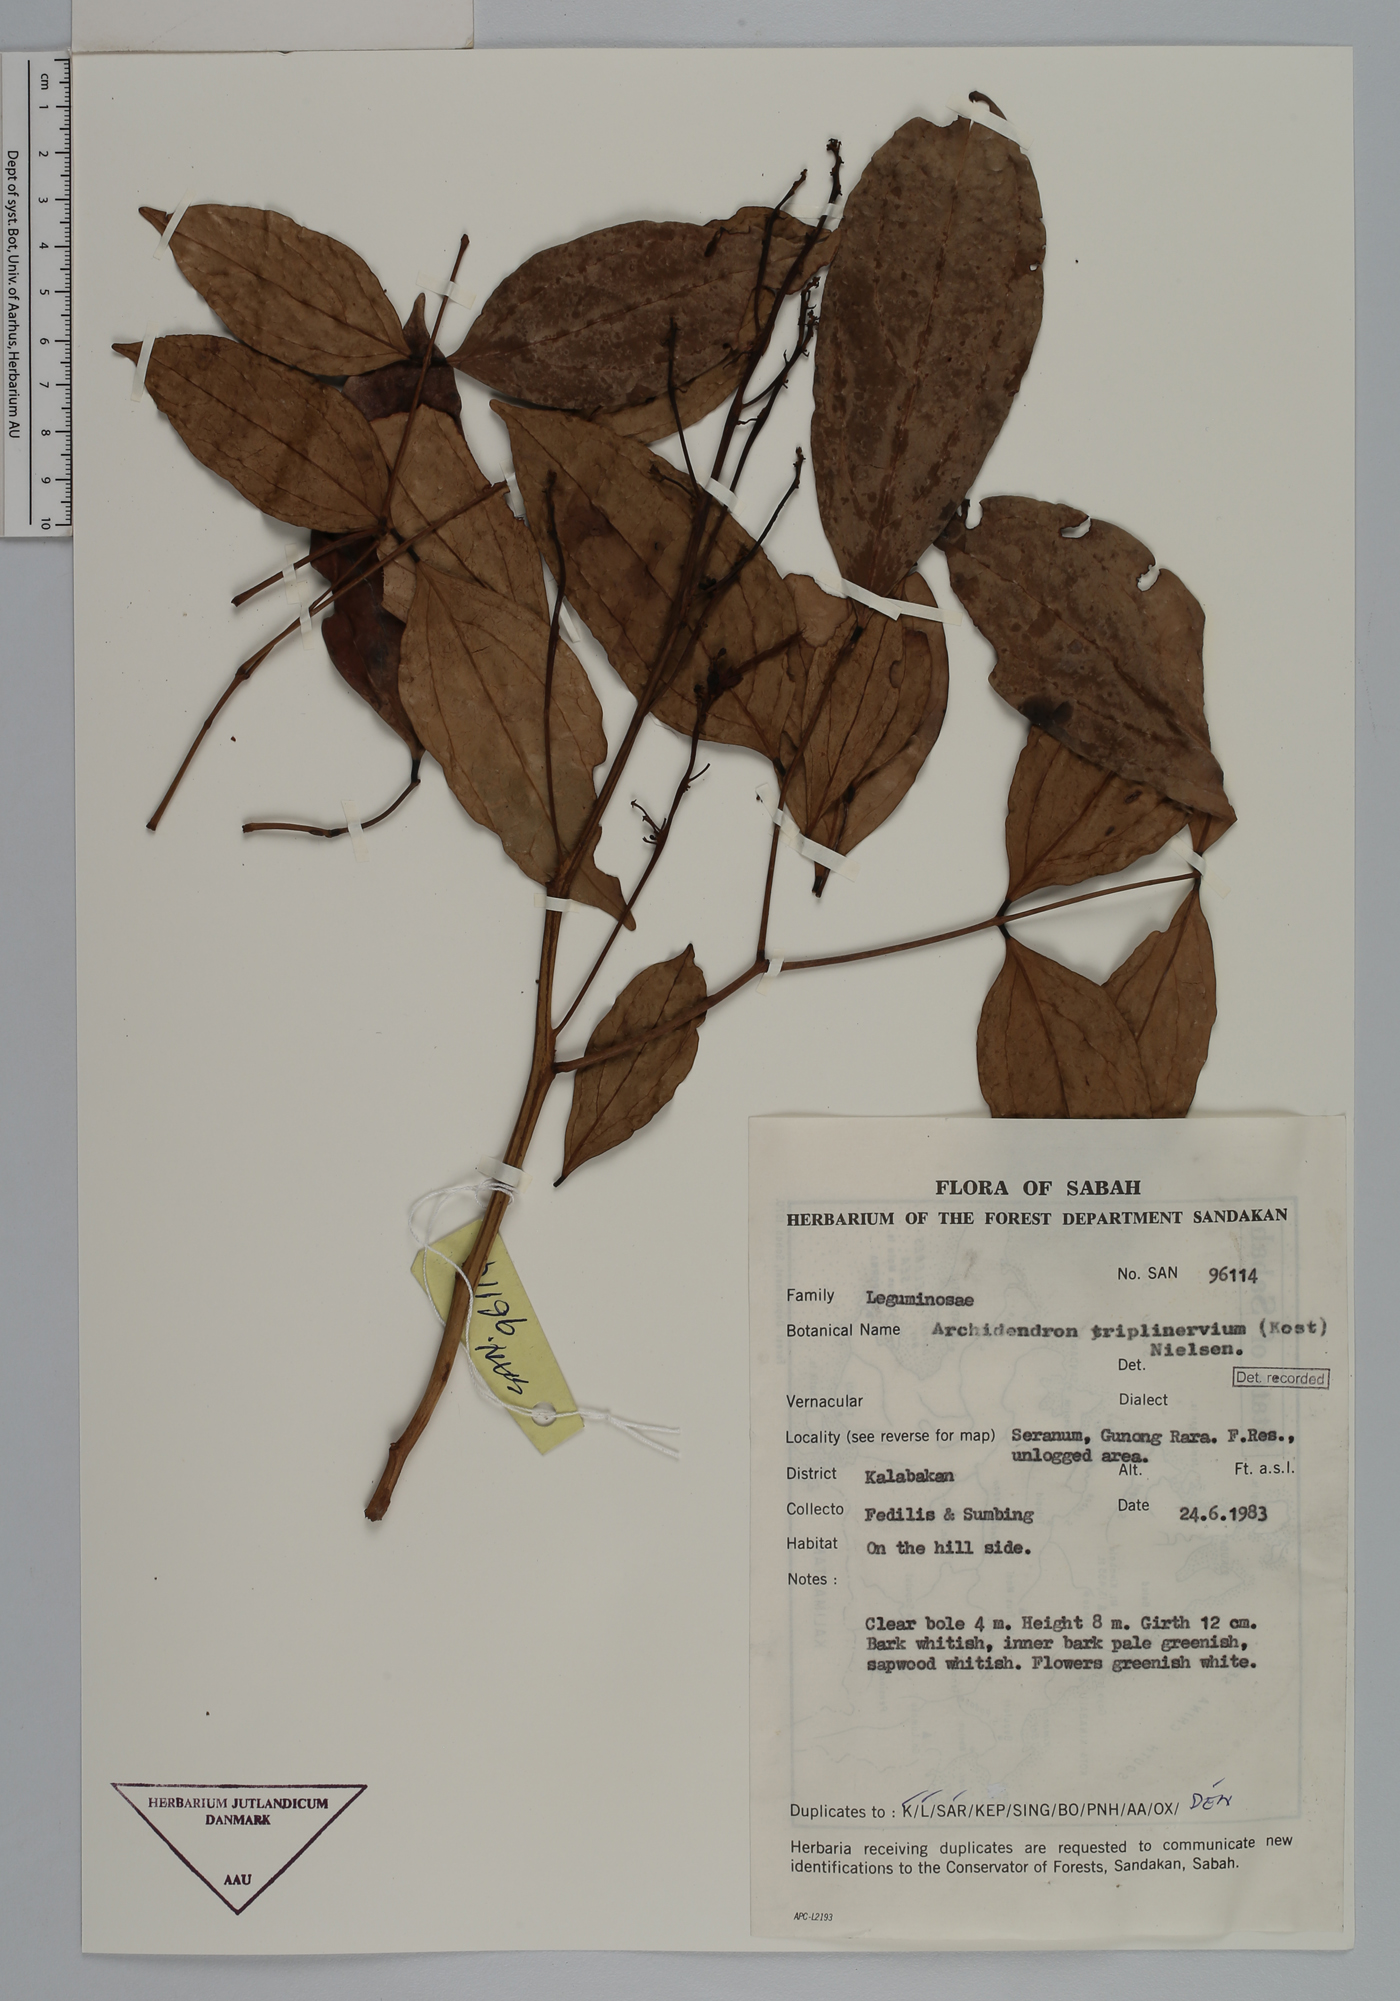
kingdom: Plantae
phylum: Tracheophyta
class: Magnoliopsida
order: Fabales
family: Fabaceae
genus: Archidendron
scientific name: Archidendron triplinervium
